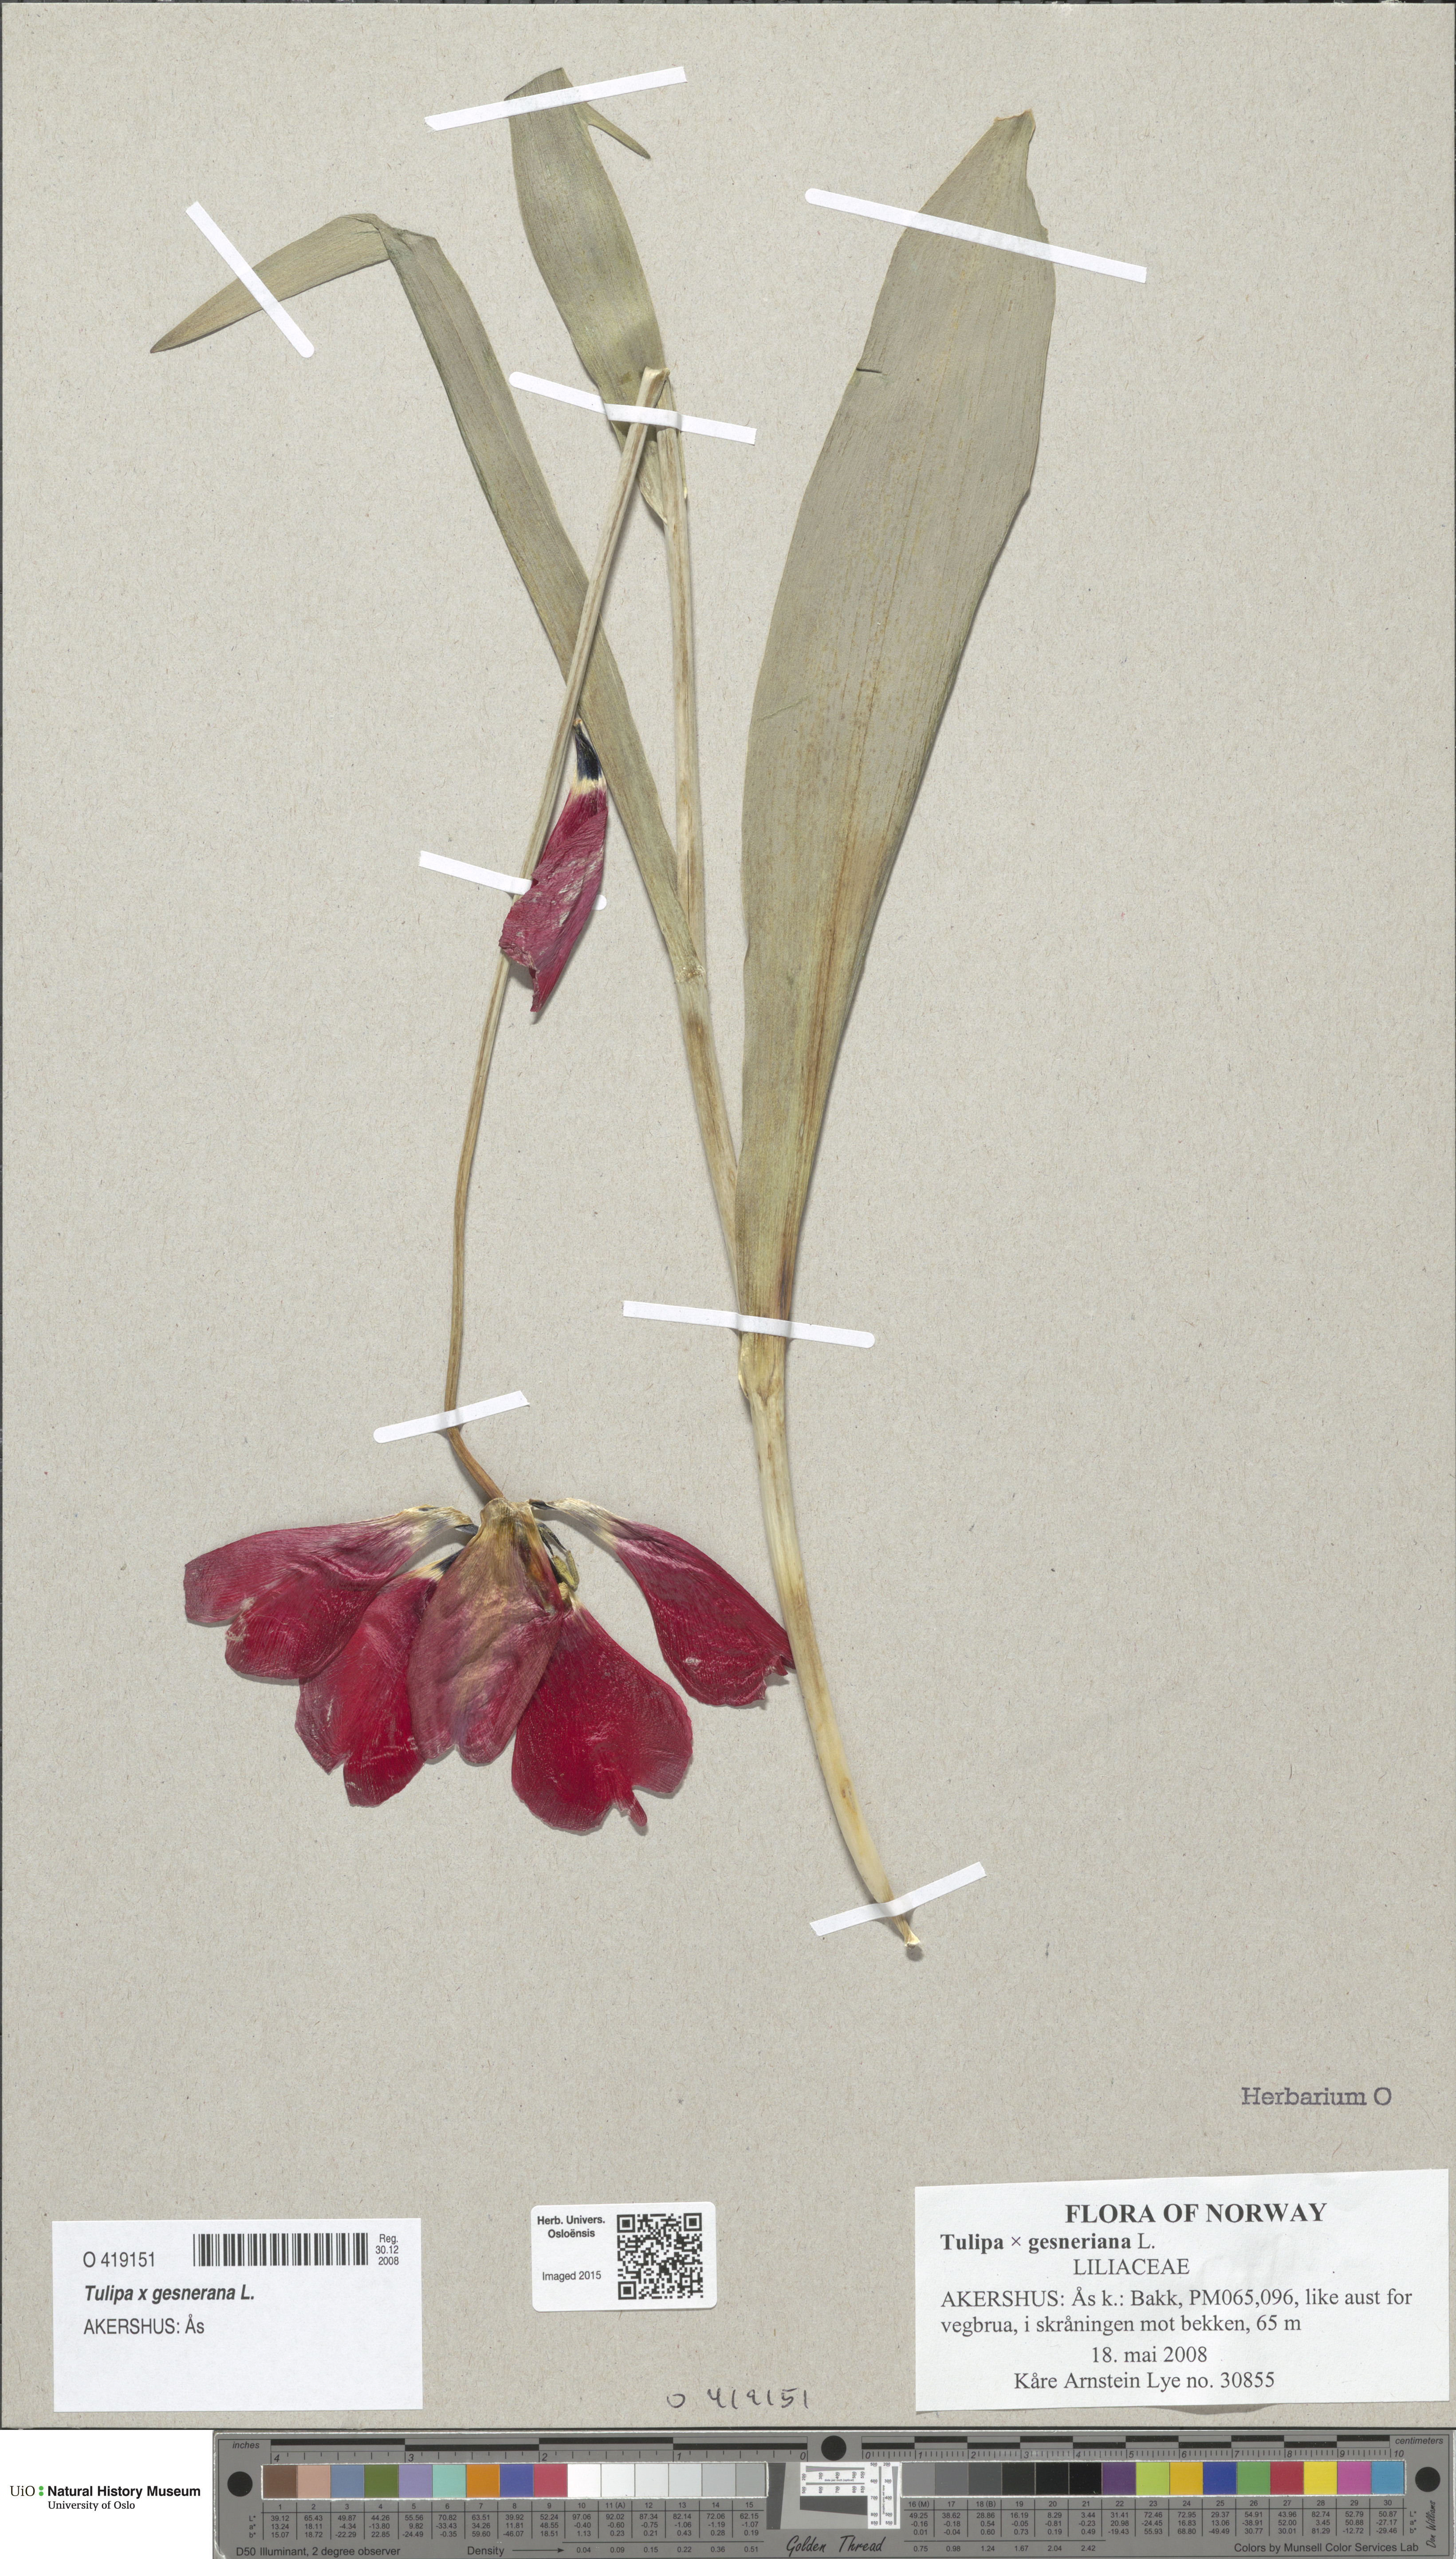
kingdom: Plantae
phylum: Tracheophyta
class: Liliopsida
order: Liliales
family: Liliaceae
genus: Tulipa
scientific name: Tulipa gesneriana
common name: Garden tulip
